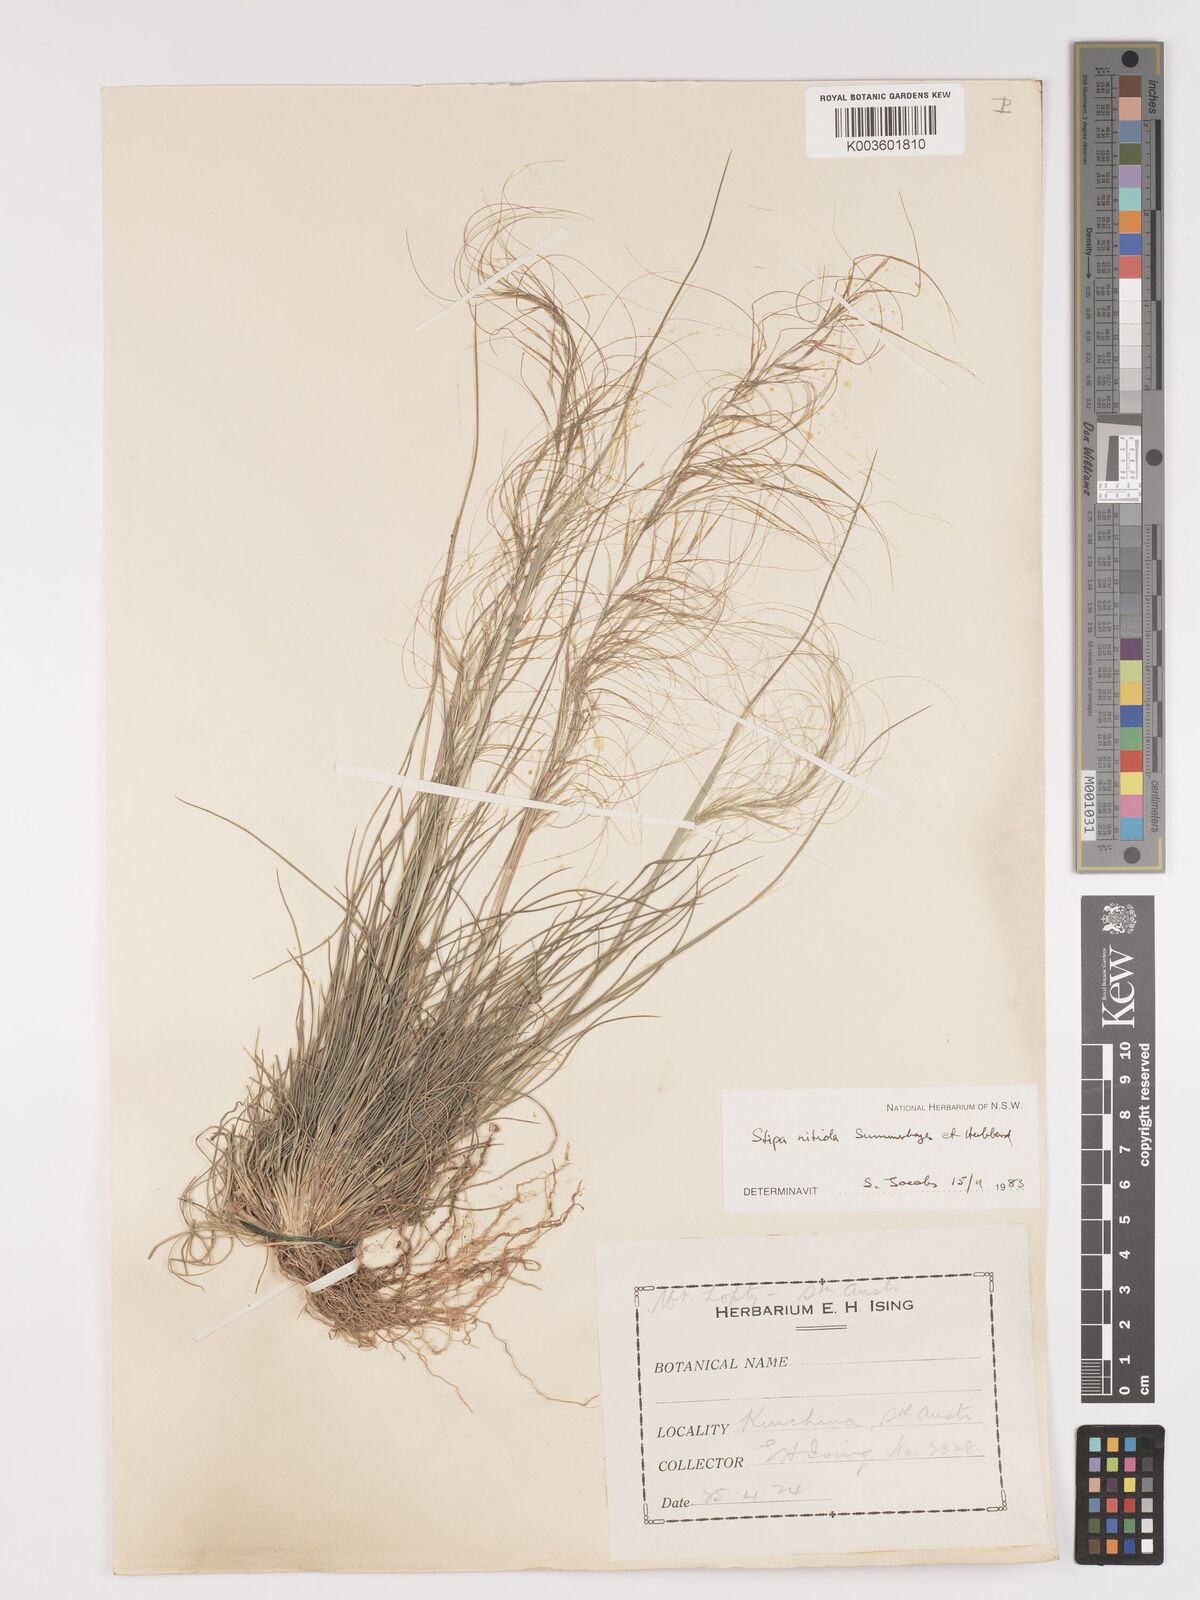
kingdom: Plantae
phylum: Tracheophyta
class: Liliopsida
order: Poales
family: Poaceae
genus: Austrostipa
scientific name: Austrostipa nitida
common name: Balcarra grass
